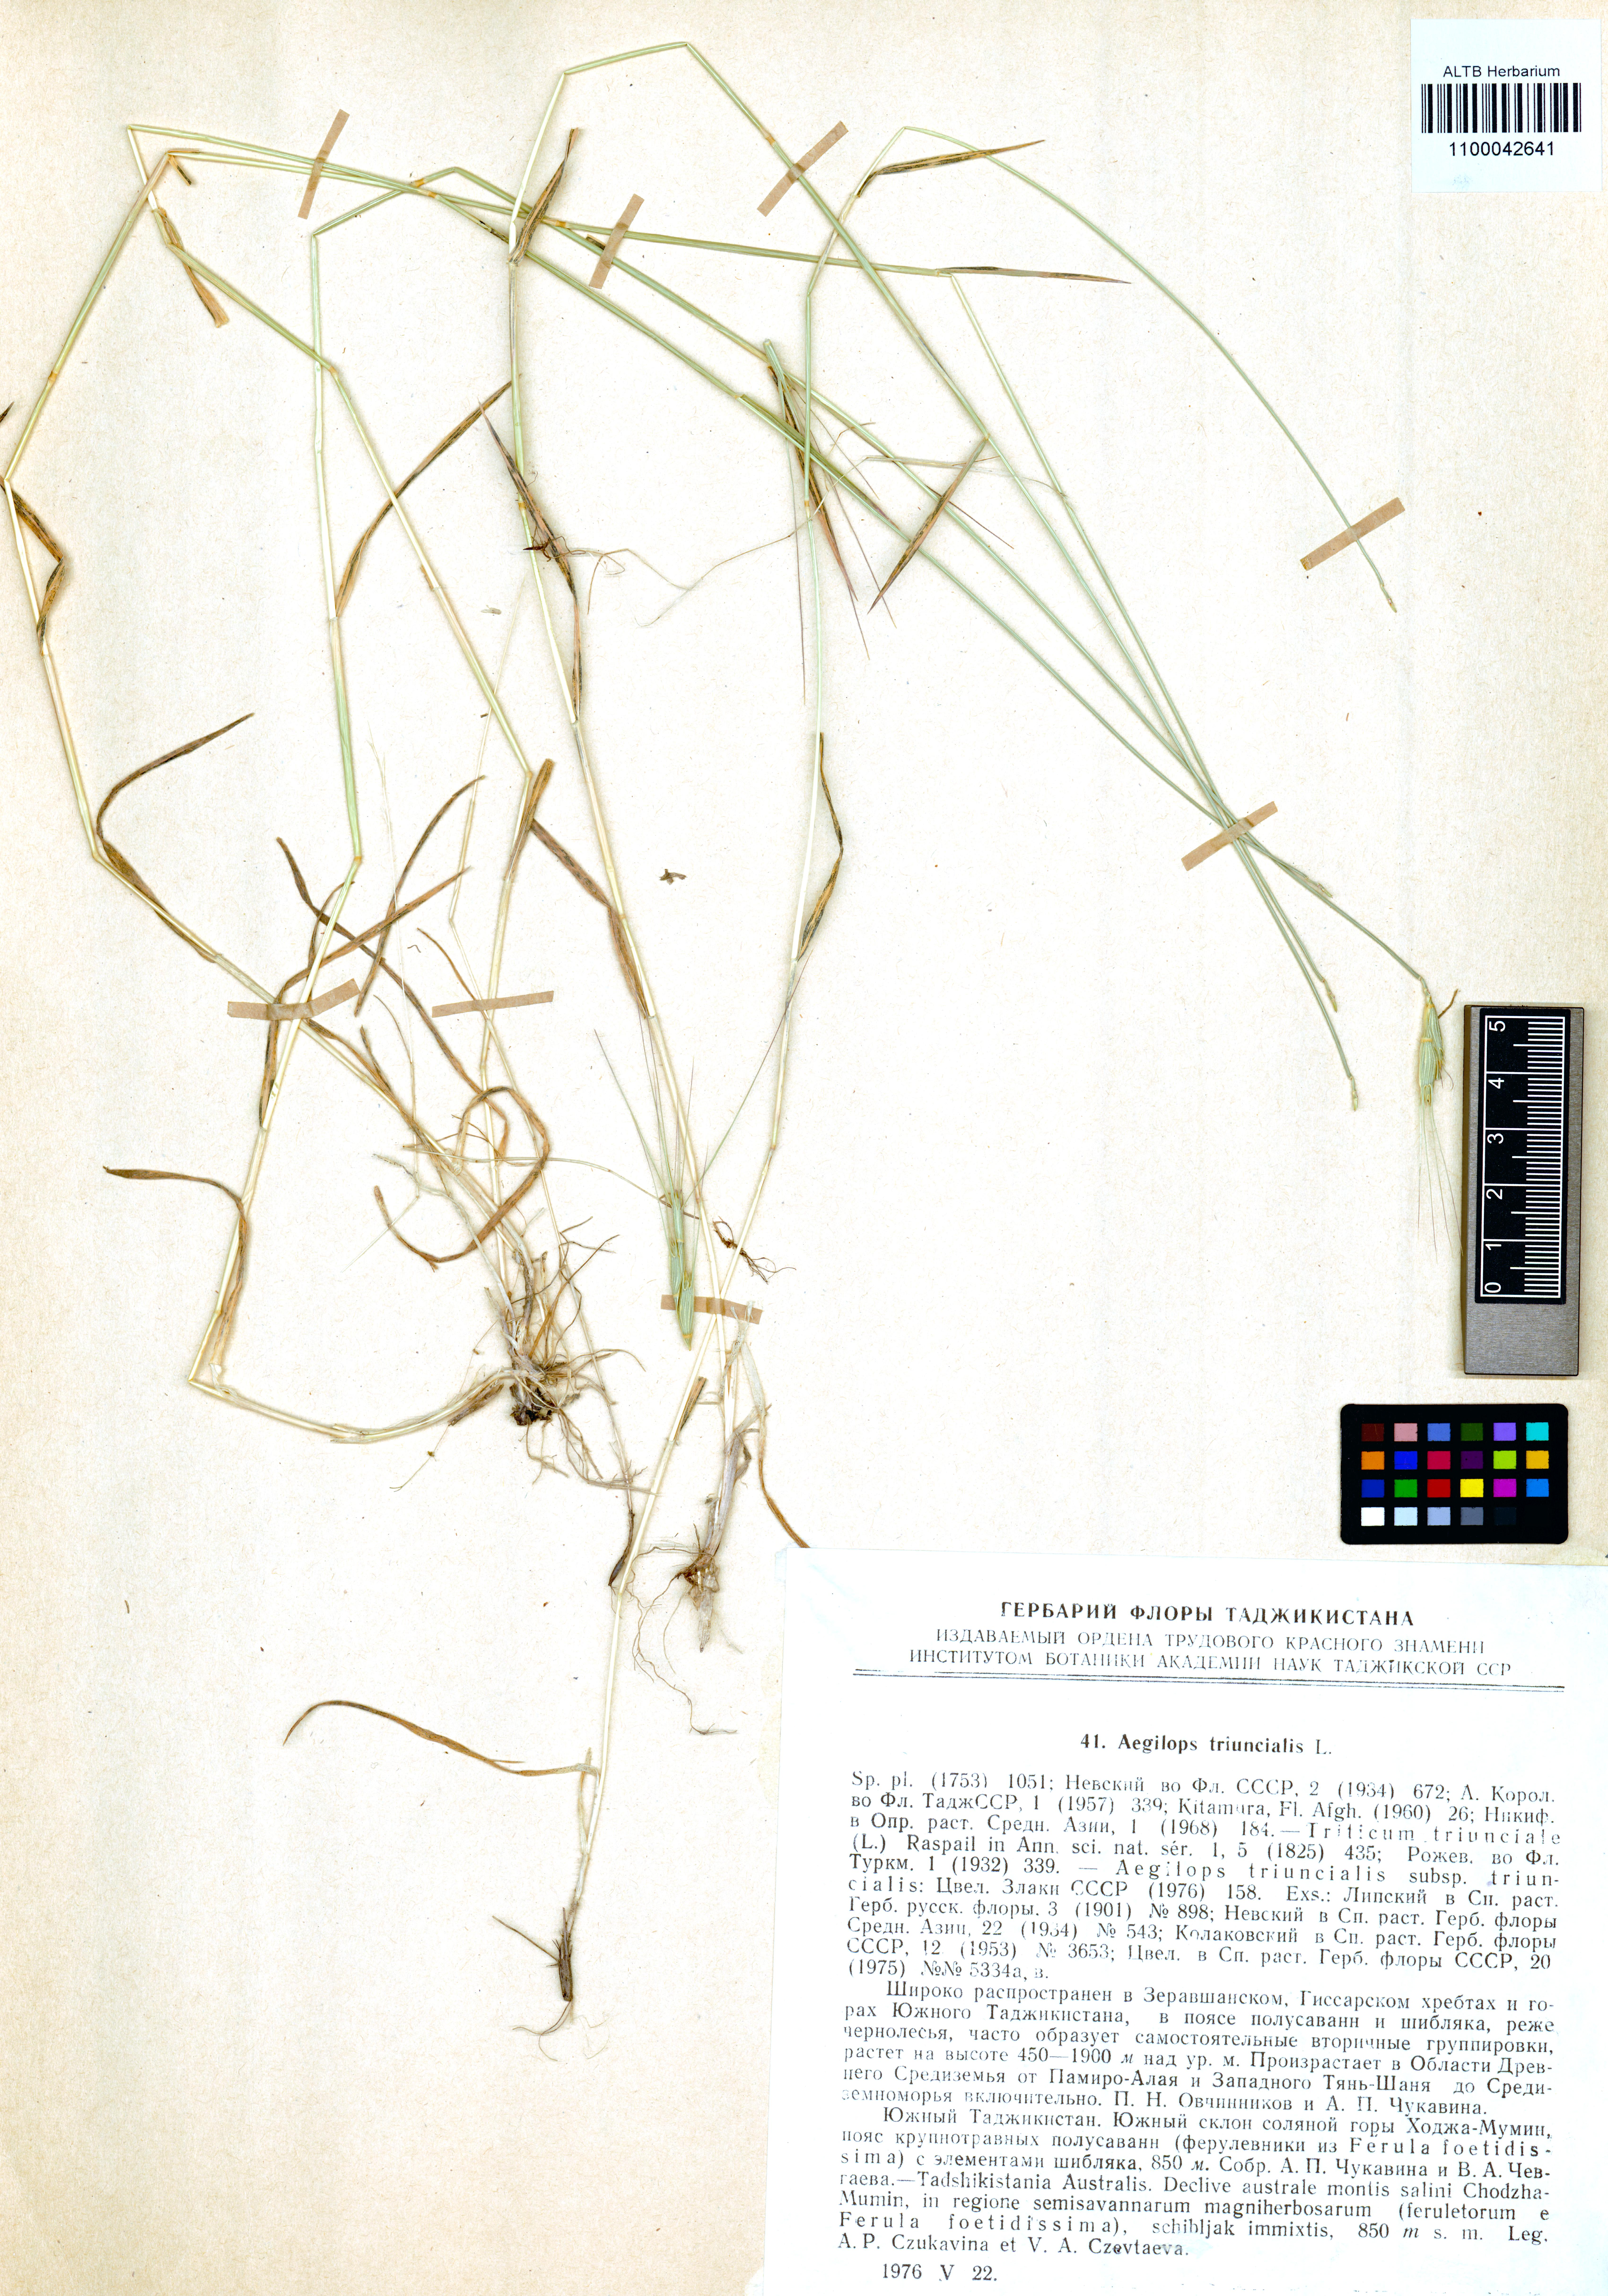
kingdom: Plantae
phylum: Tracheophyta
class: Liliopsida
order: Poales
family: Poaceae
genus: Aegilops
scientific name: Aegilops triuncialis
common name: Barb goat grass
